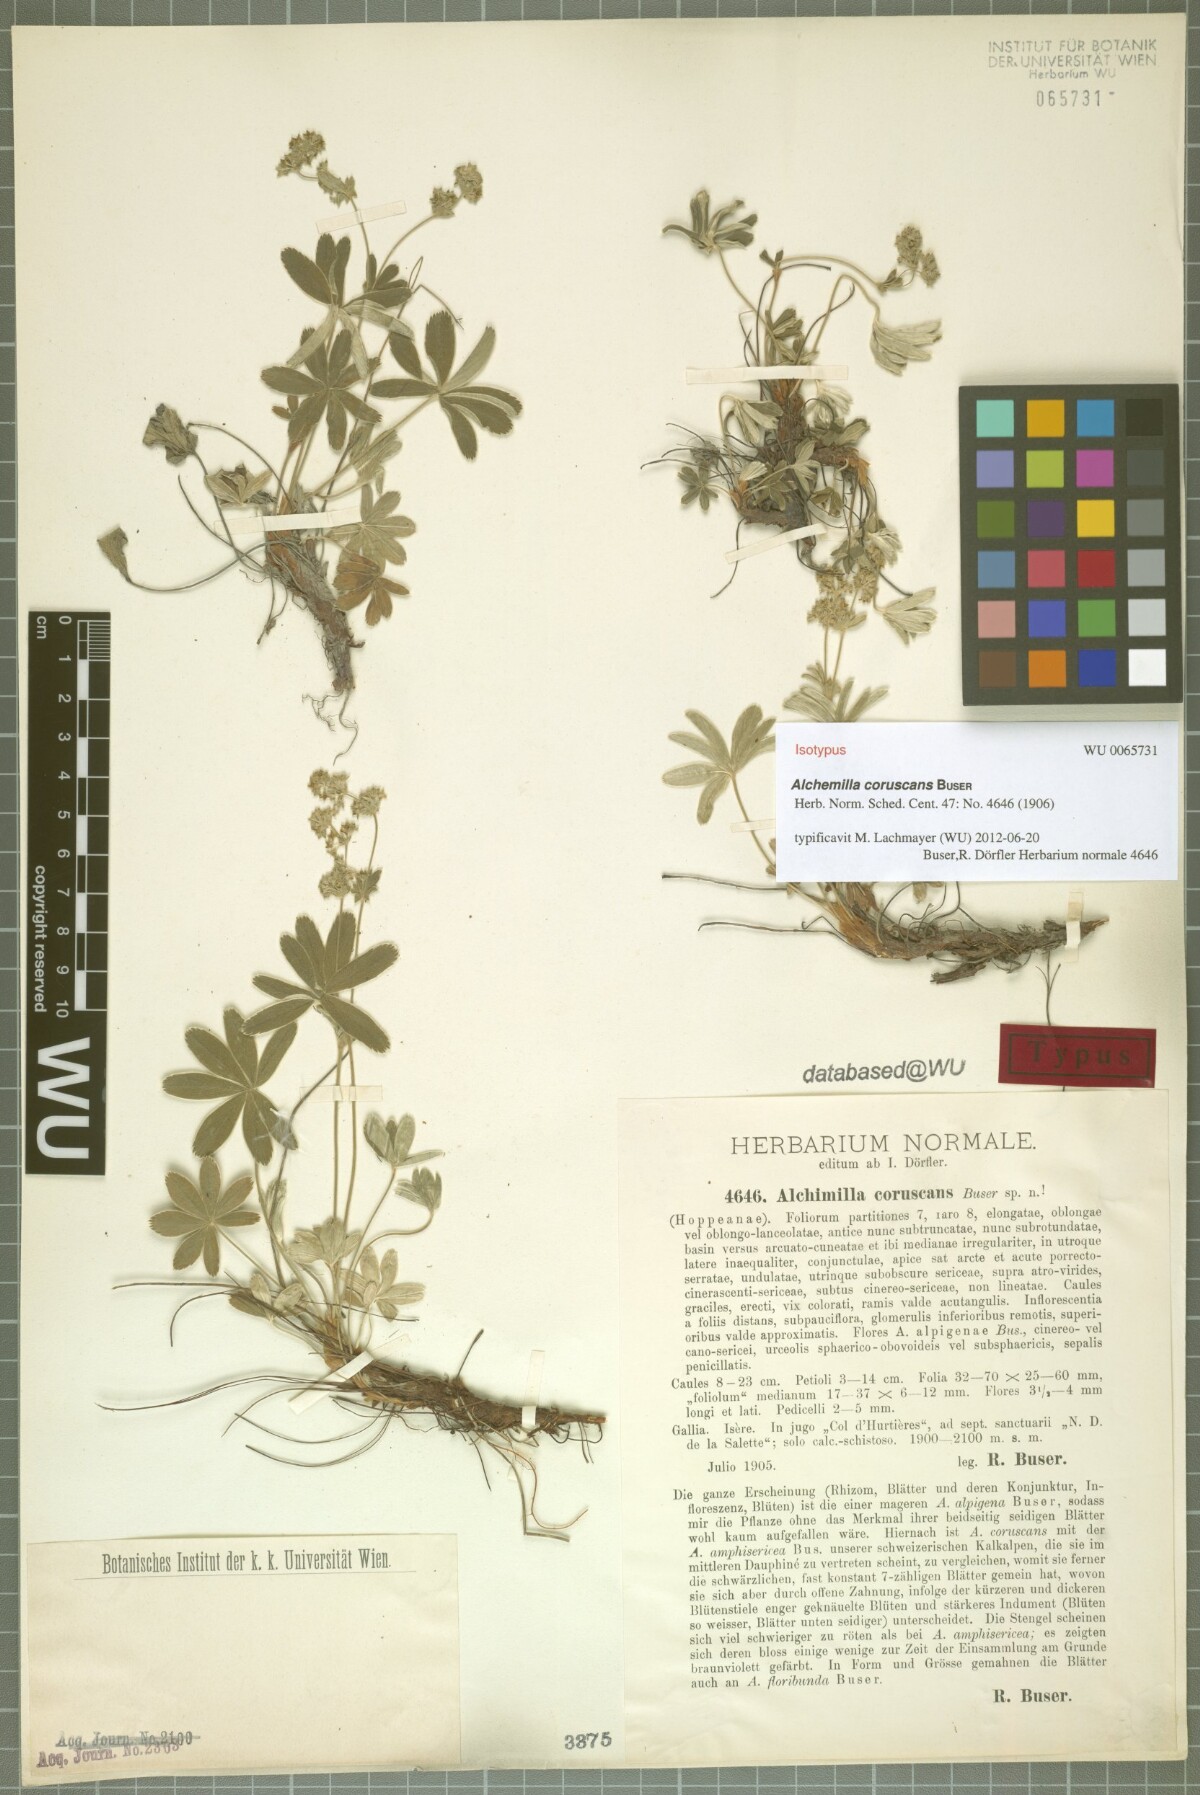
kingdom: Plantae
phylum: Tracheophyta
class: Magnoliopsida
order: Rosales
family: Rosaceae
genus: Alchemilla
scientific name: Alchemilla coruscans
